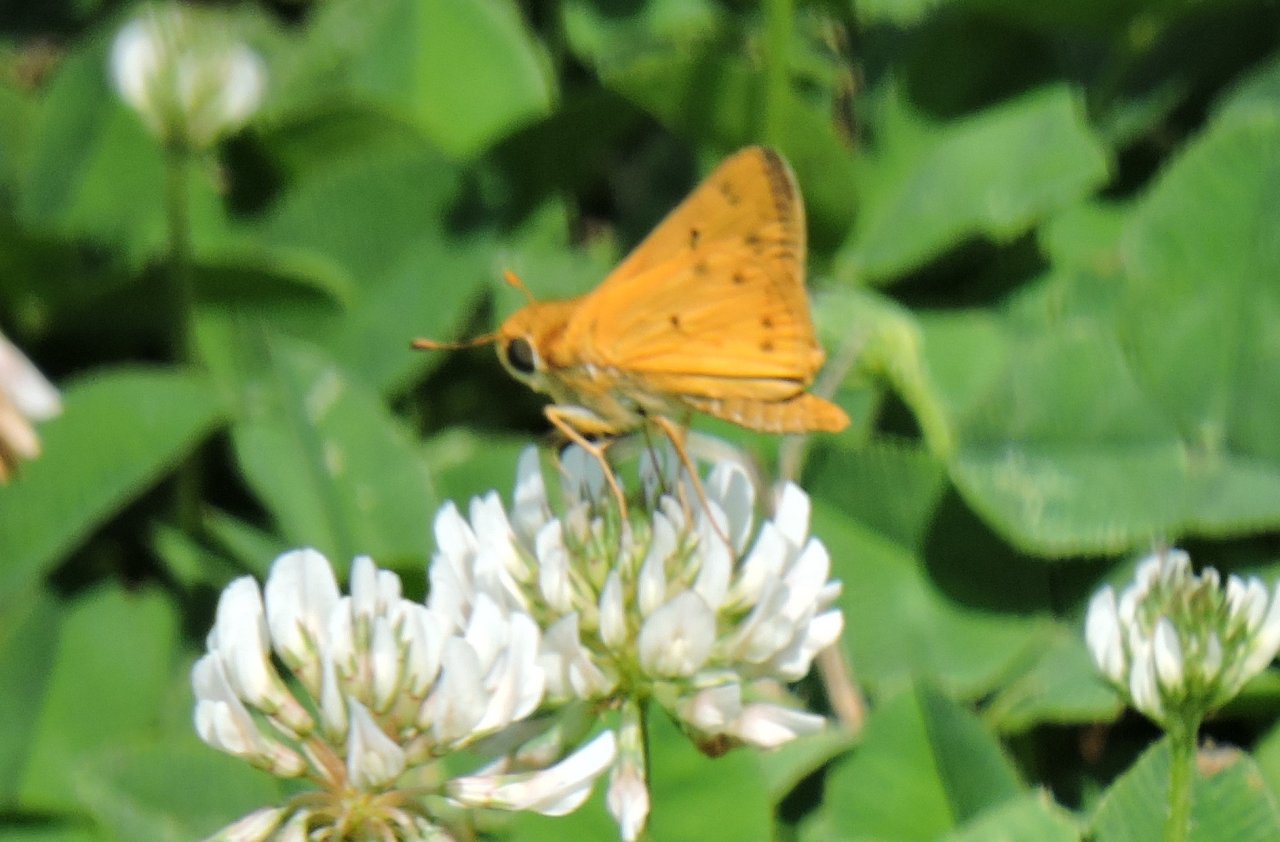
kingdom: Animalia
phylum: Arthropoda
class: Insecta
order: Lepidoptera
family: Hesperiidae
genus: Hylephila
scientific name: Hylephila phyleus
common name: Fiery Skipper
